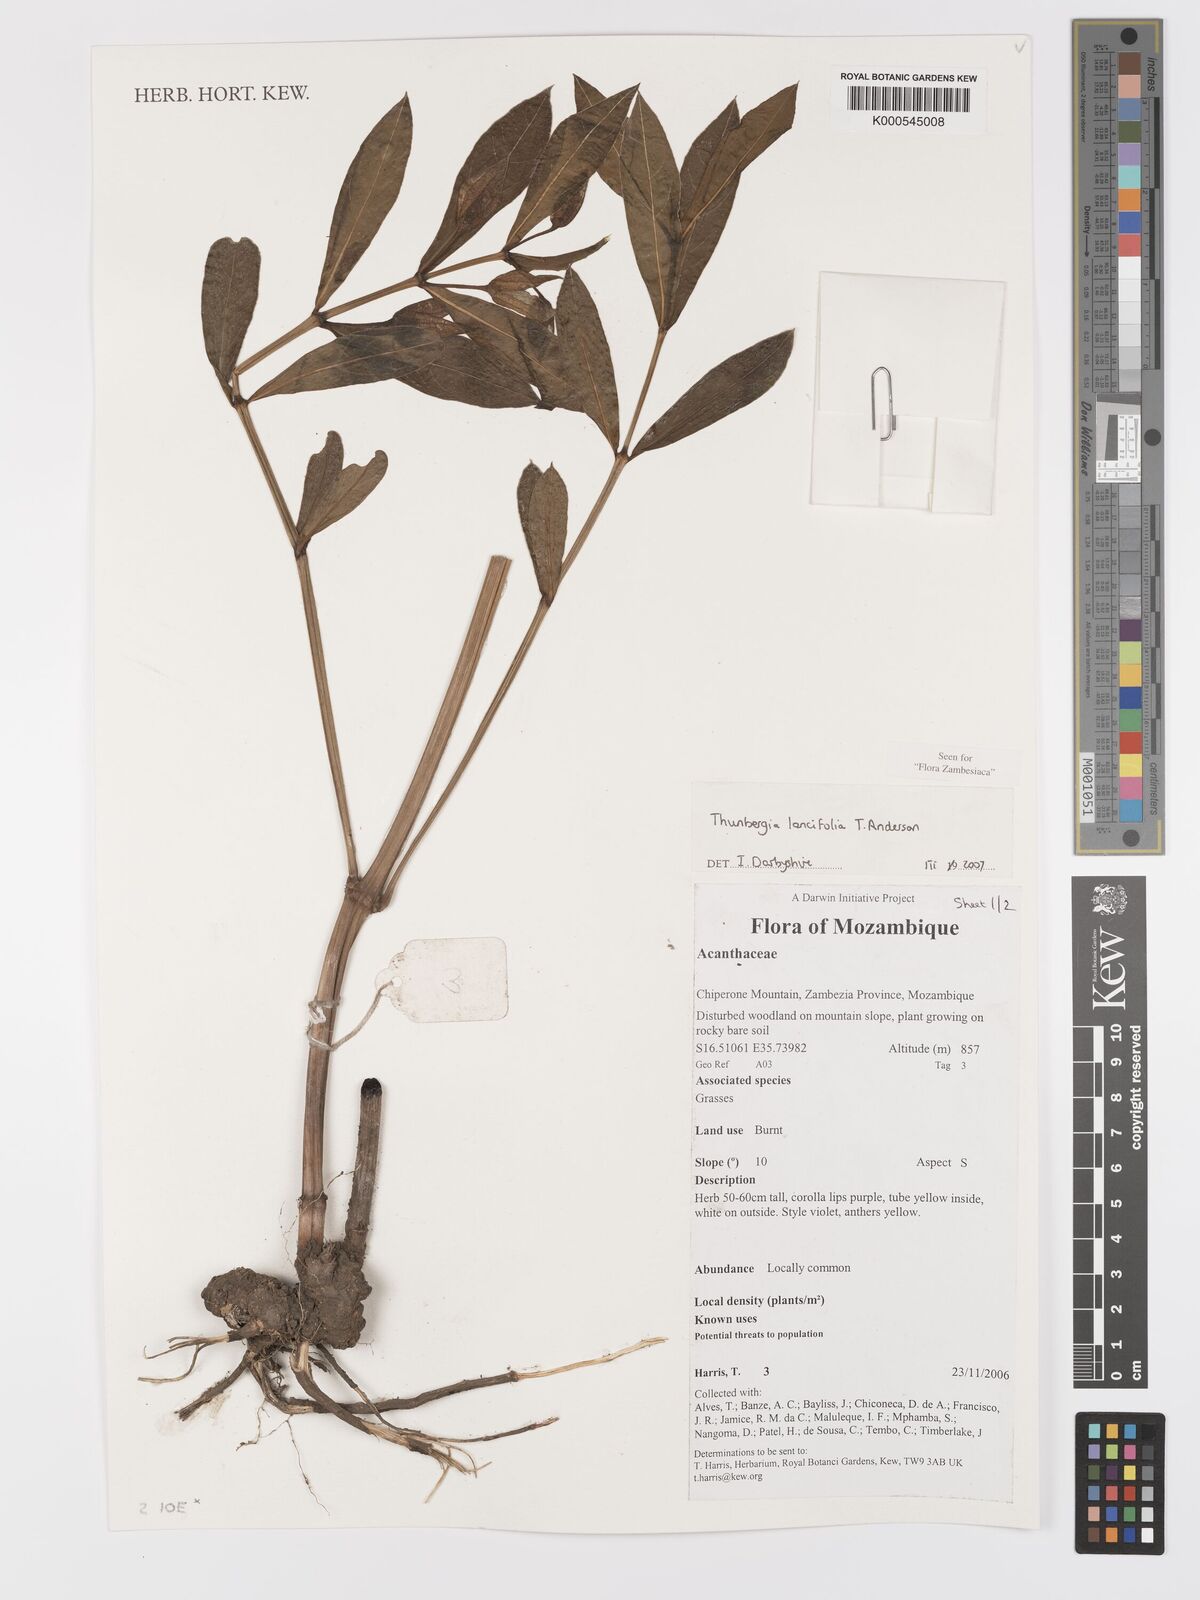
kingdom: Plantae
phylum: Tracheophyta
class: Magnoliopsida
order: Lamiales
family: Acanthaceae
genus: Thunbergia
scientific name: Thunbergia lancifolia
